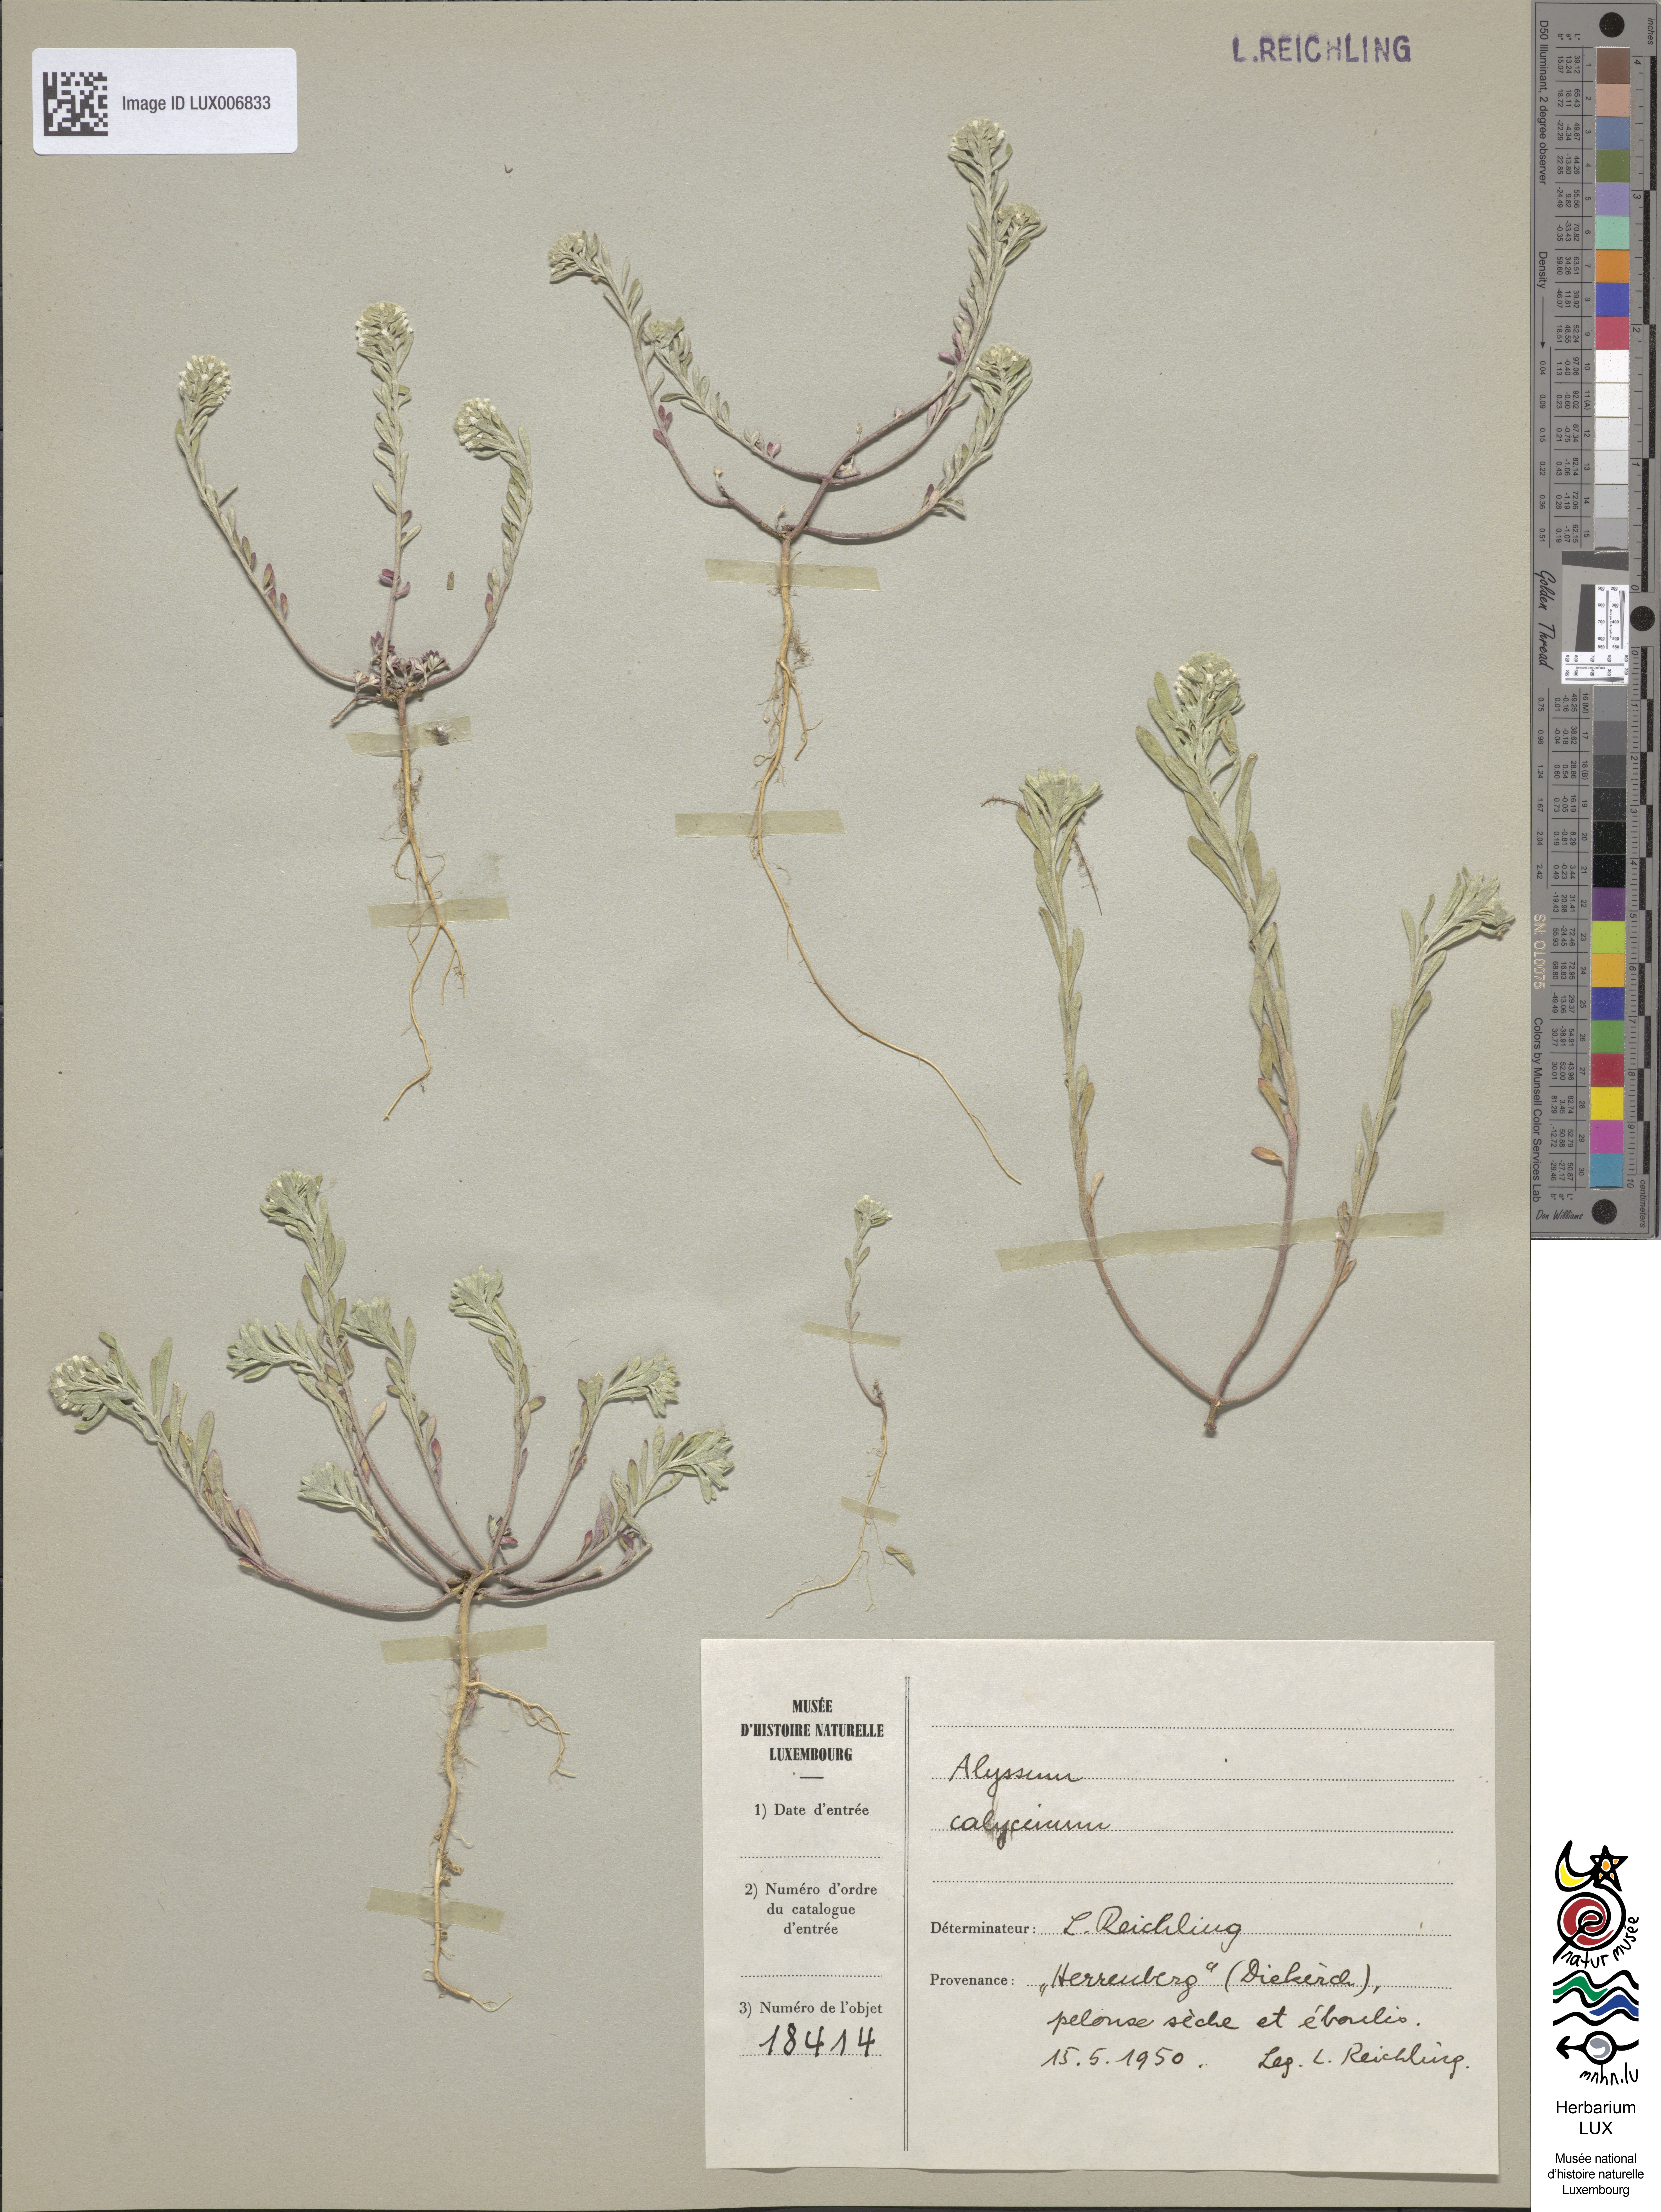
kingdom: Plantae
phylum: Tracheophyta
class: Magnoliopsida
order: Brassicales
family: Brassicaceae
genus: Alyssum
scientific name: Alyssum alyssoides
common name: Small alison
